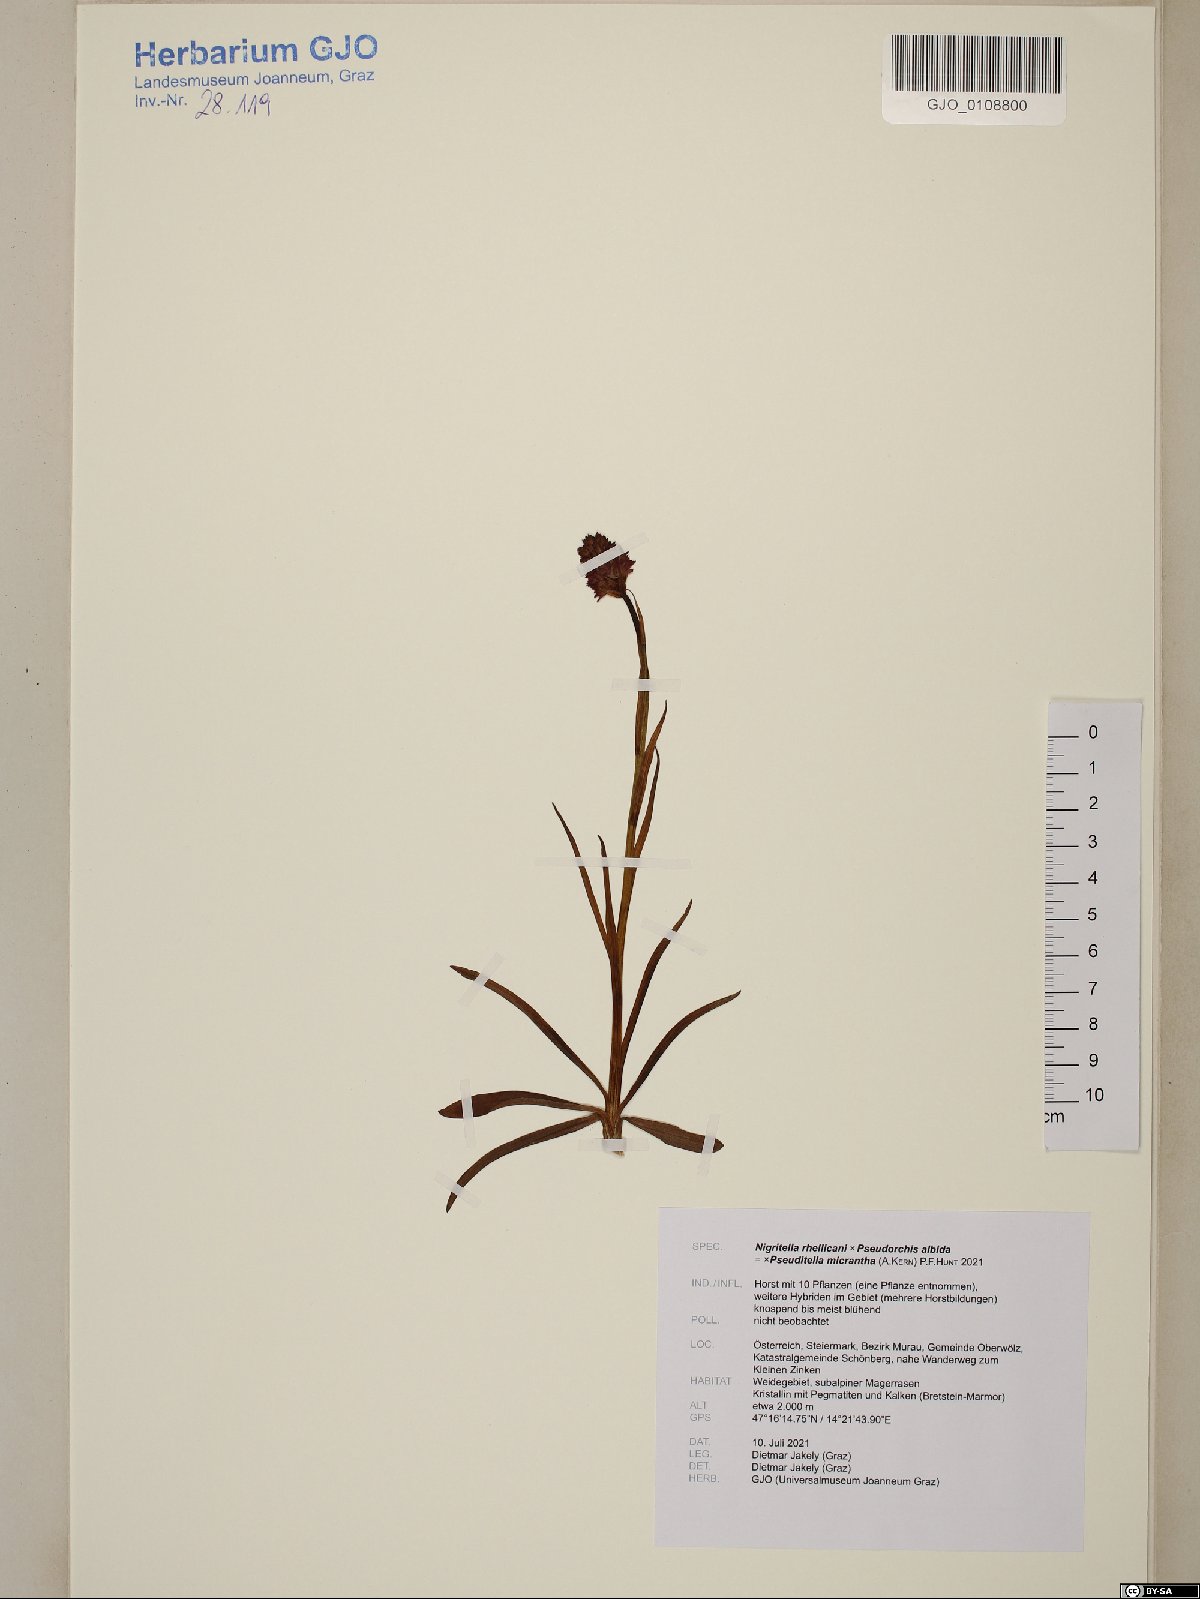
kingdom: Plantae
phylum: Tracheophyta
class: Liliopsida
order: Asparagales
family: Orchidaceae
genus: Pseudadenia
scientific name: Pseudadenia
